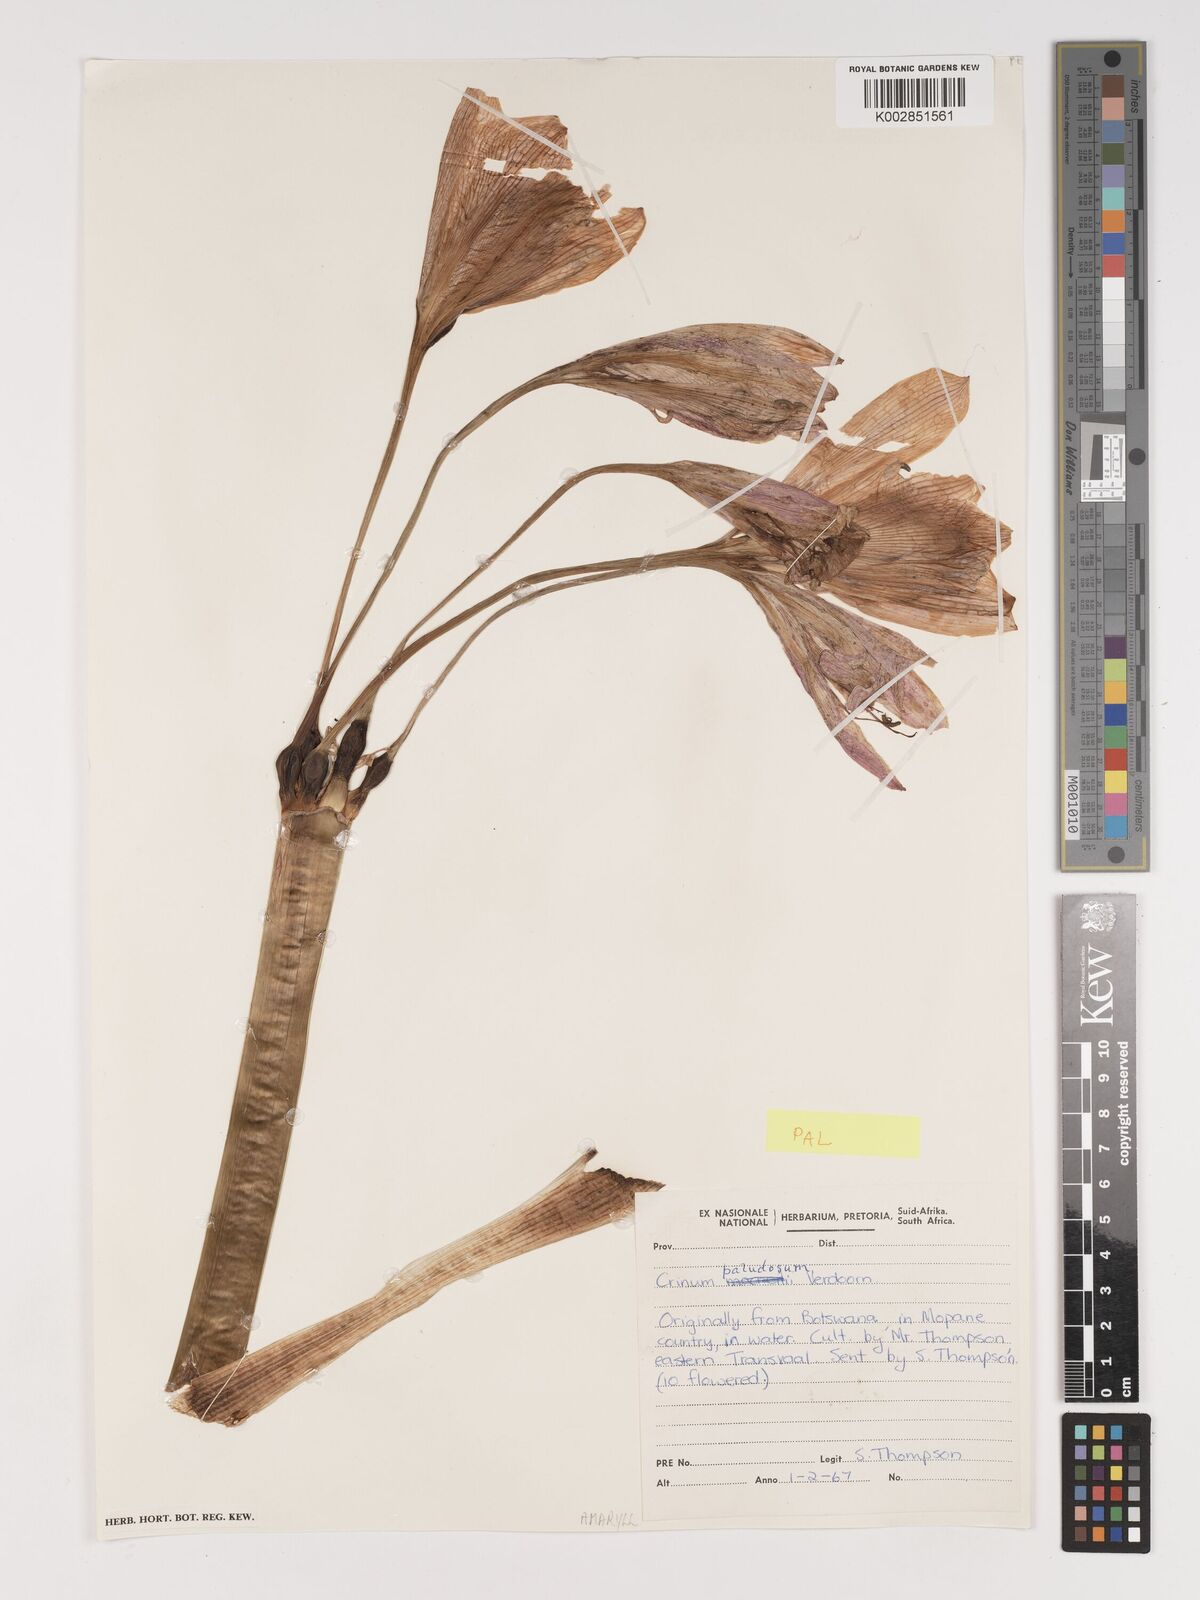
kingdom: Plantae
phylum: Tracheophyta
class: Liliopsida
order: Asparagales
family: Amaryllidaceae
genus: Crinum
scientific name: Crinum paludosum
